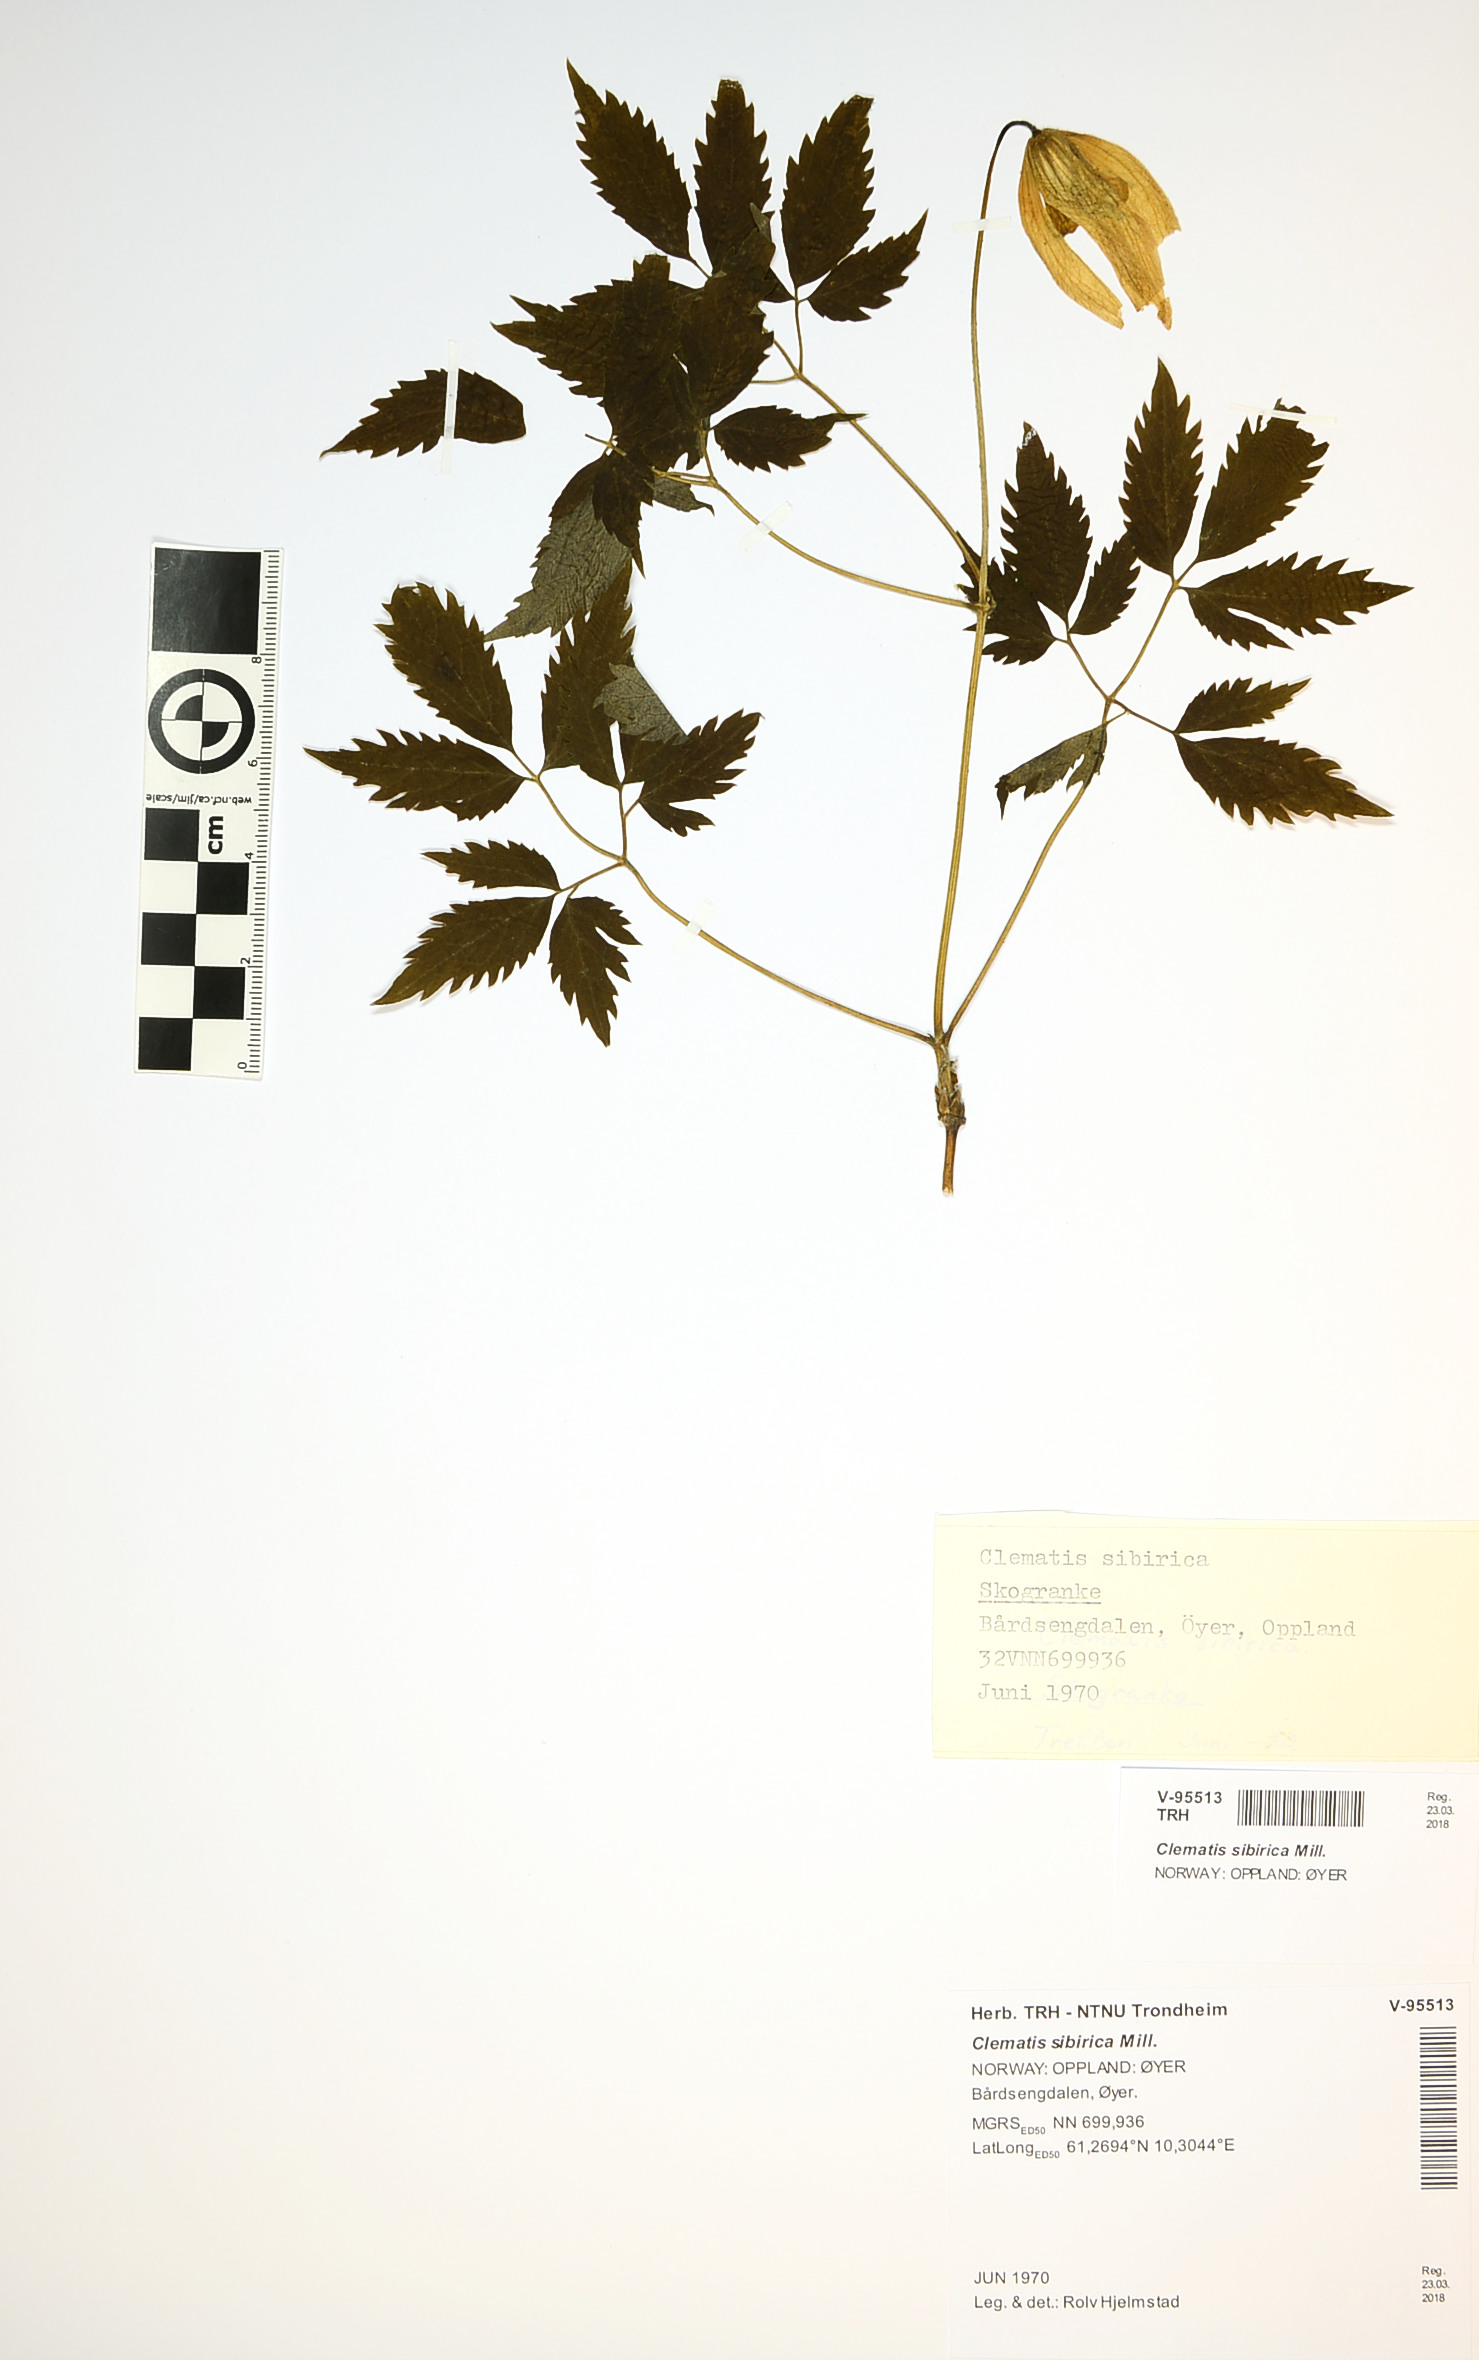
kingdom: Plantae
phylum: Tracheophyta
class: Magnoliopsida
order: Ranunculales
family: Ranunculaceae
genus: Clematis
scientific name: Clematis sibirica
